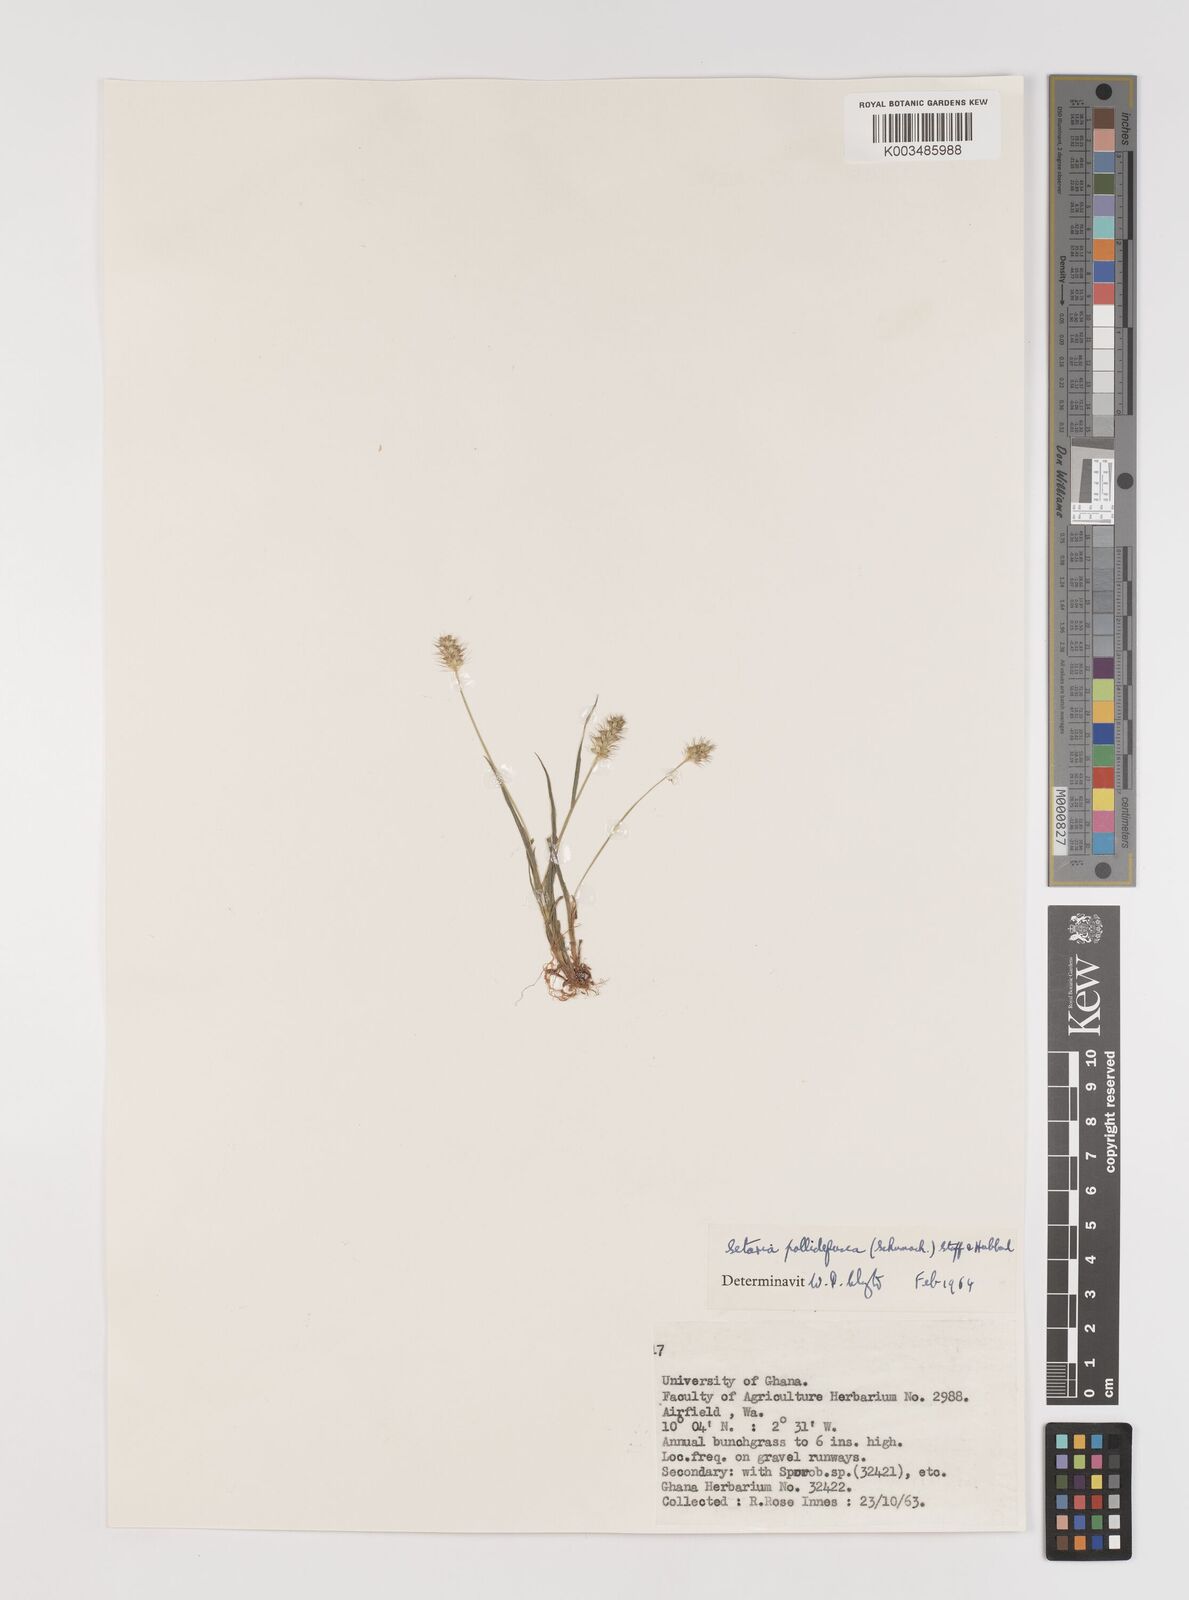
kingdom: Plantae
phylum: Tracheophyta
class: Liliopsida
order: Poales
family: Poaceae
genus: Setaria
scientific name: Setaria pumila
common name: Yellow bristle-grass
